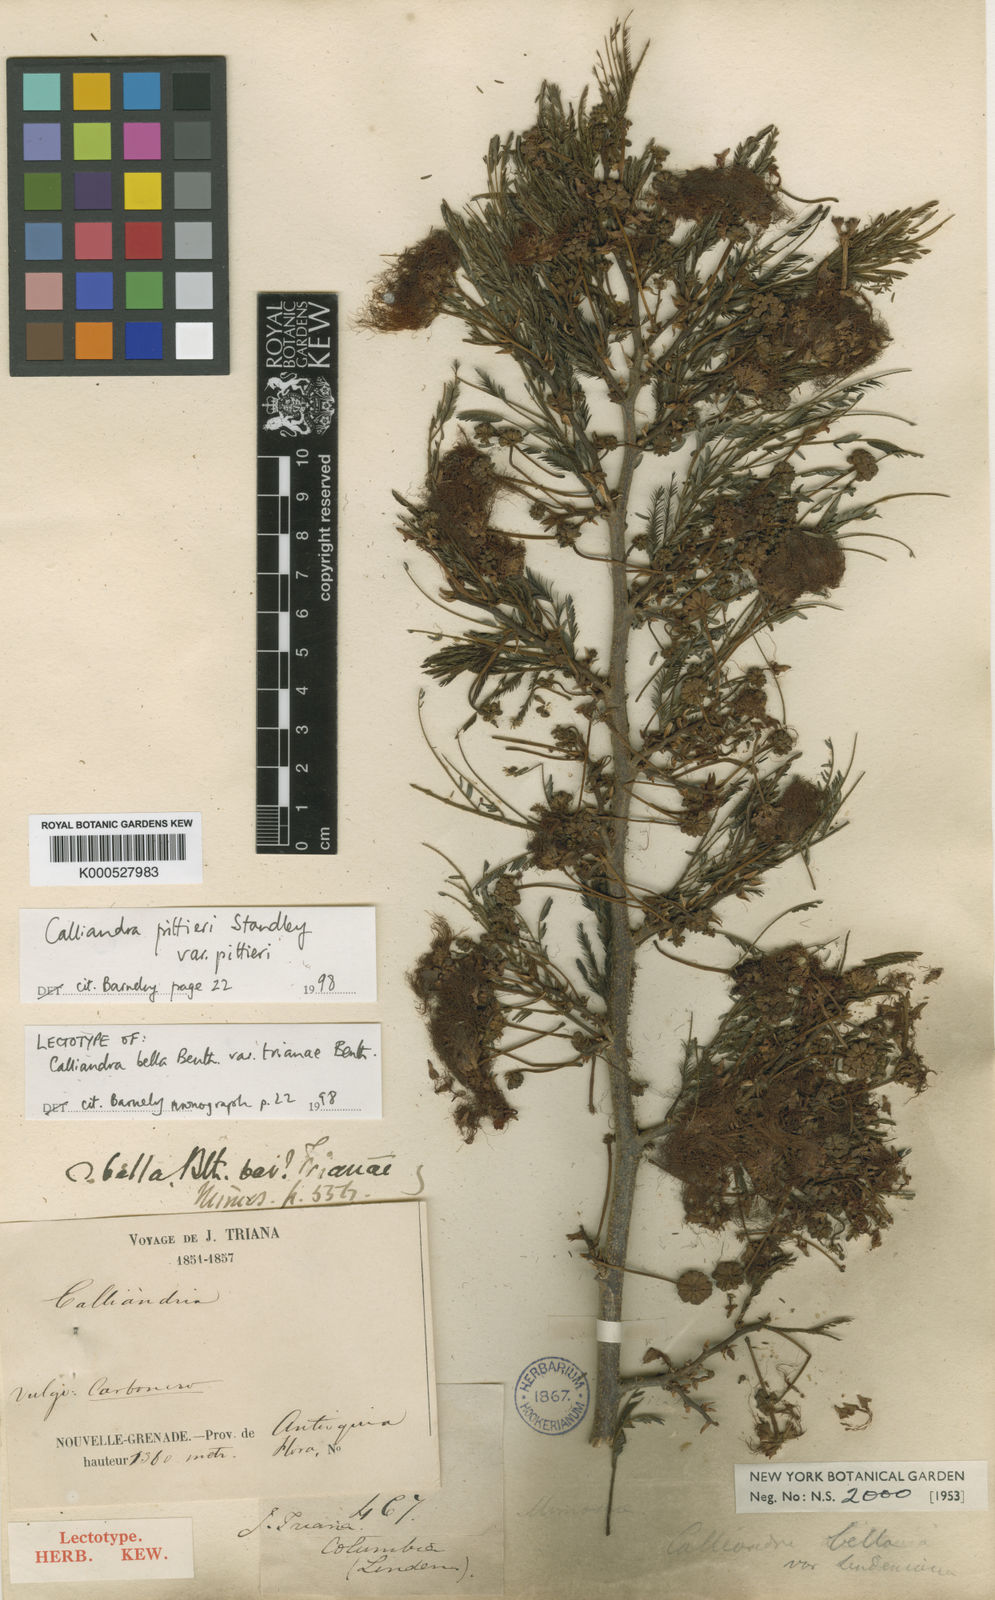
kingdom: Plantae
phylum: Tracheophyta
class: Magnoliopsida
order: Fabales
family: Fabaceae
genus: Calliandra
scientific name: Calliandra pittieri
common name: Carbonero de avenidas
